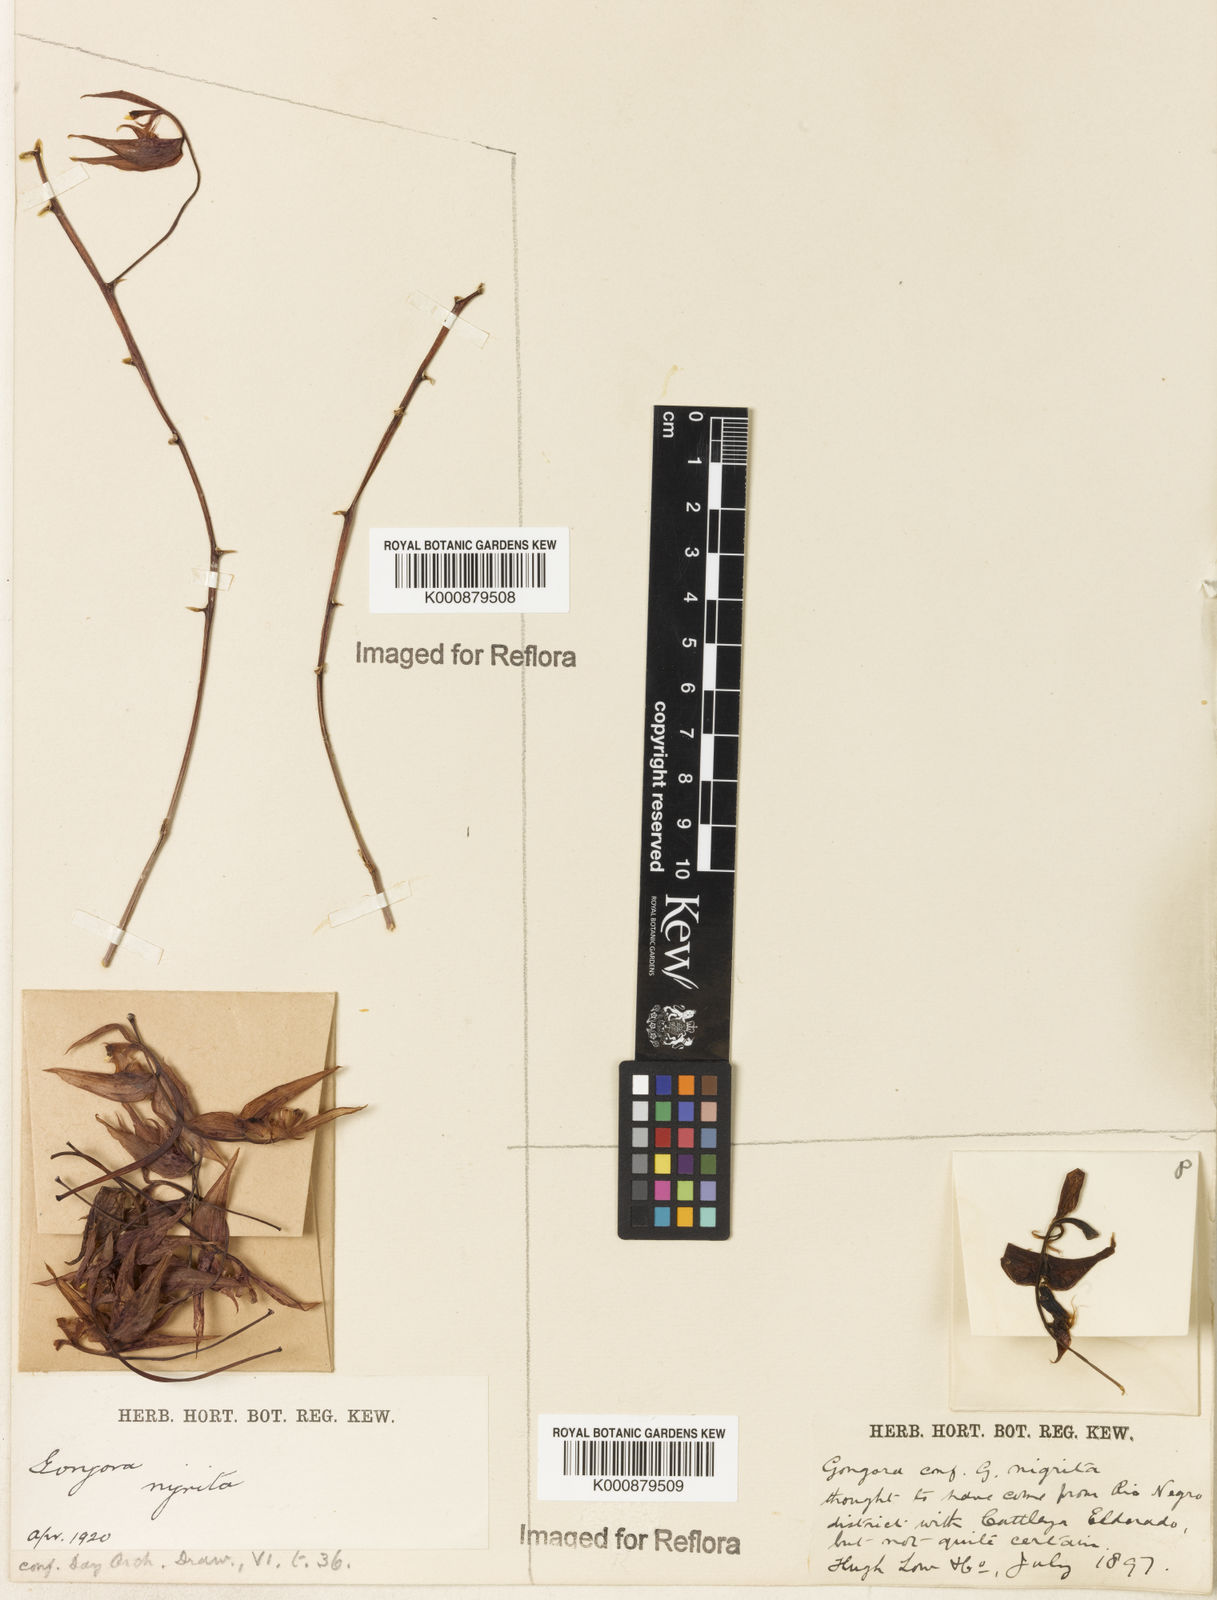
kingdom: Plantae
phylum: Tracheophyta
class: Liliopsida
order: Asparagales
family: Orchidaceae
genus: Gongora
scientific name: Gongora minax
